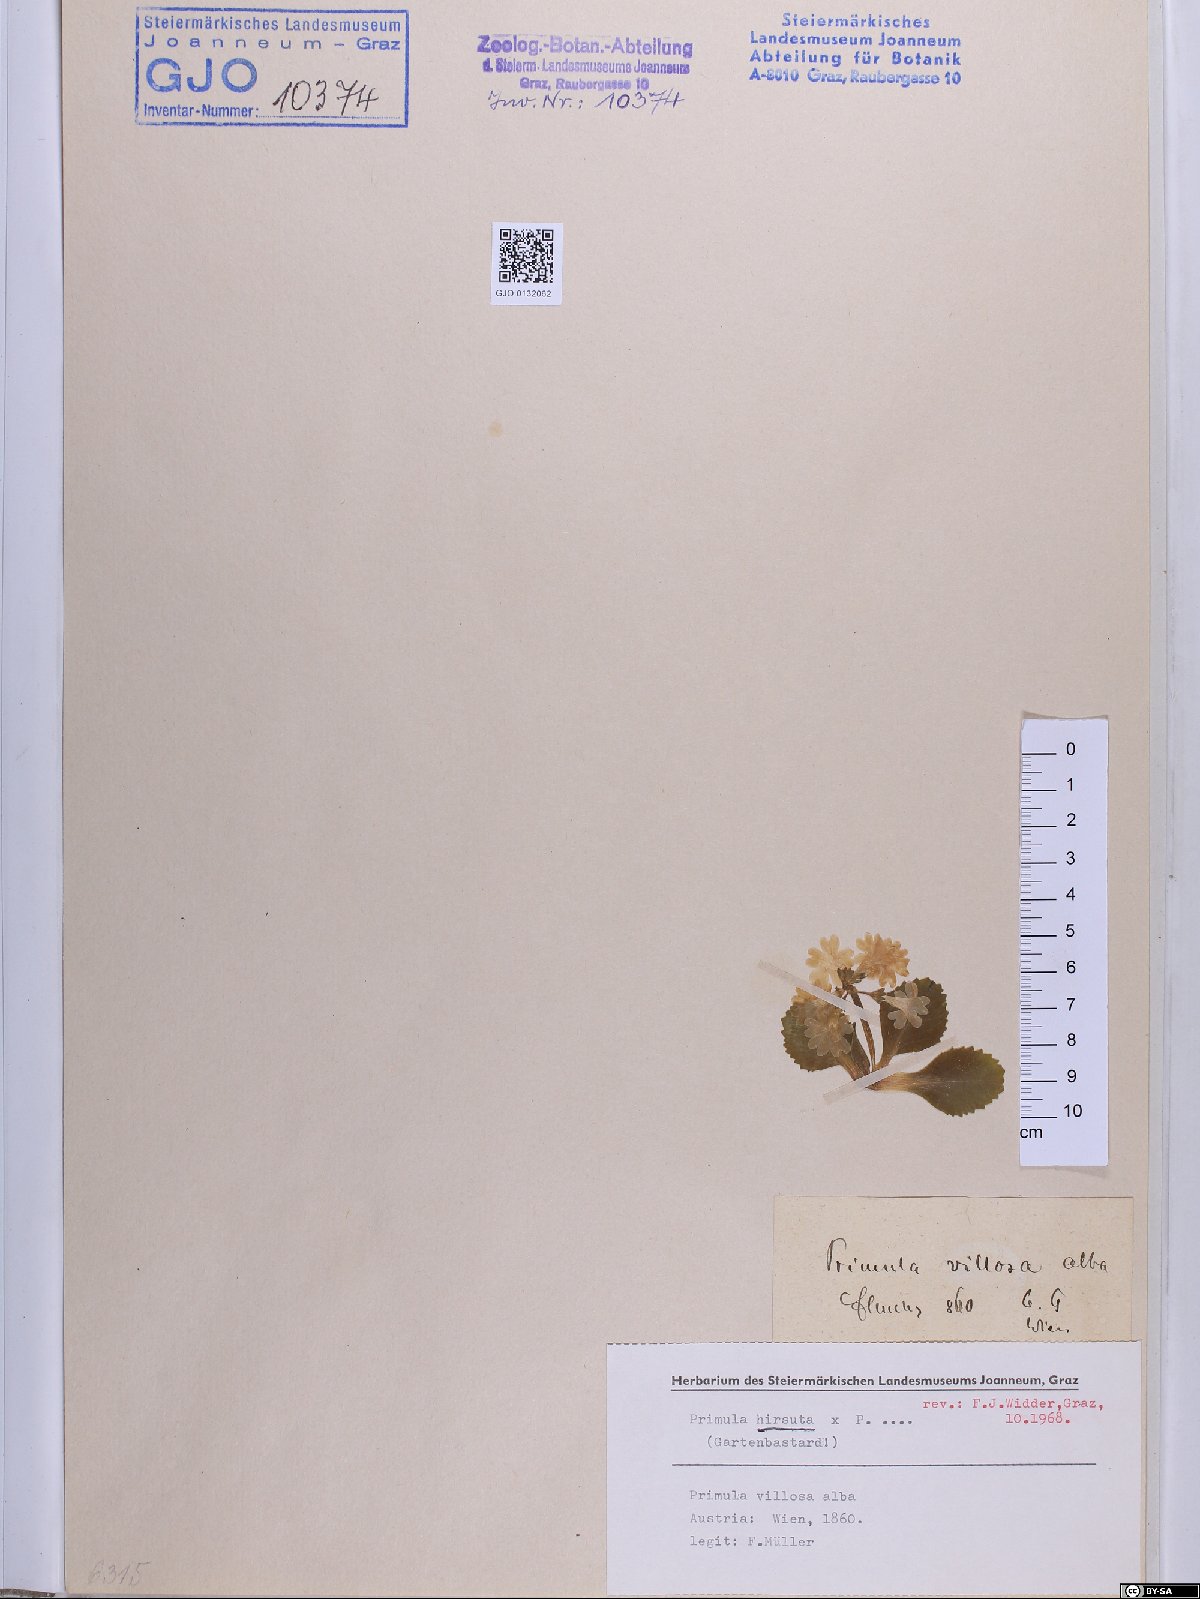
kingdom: Plantae
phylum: Tracheophyta
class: Magnoliopsida
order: Ericales
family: Primulaceae
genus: Primula
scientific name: Primula hirsuta
